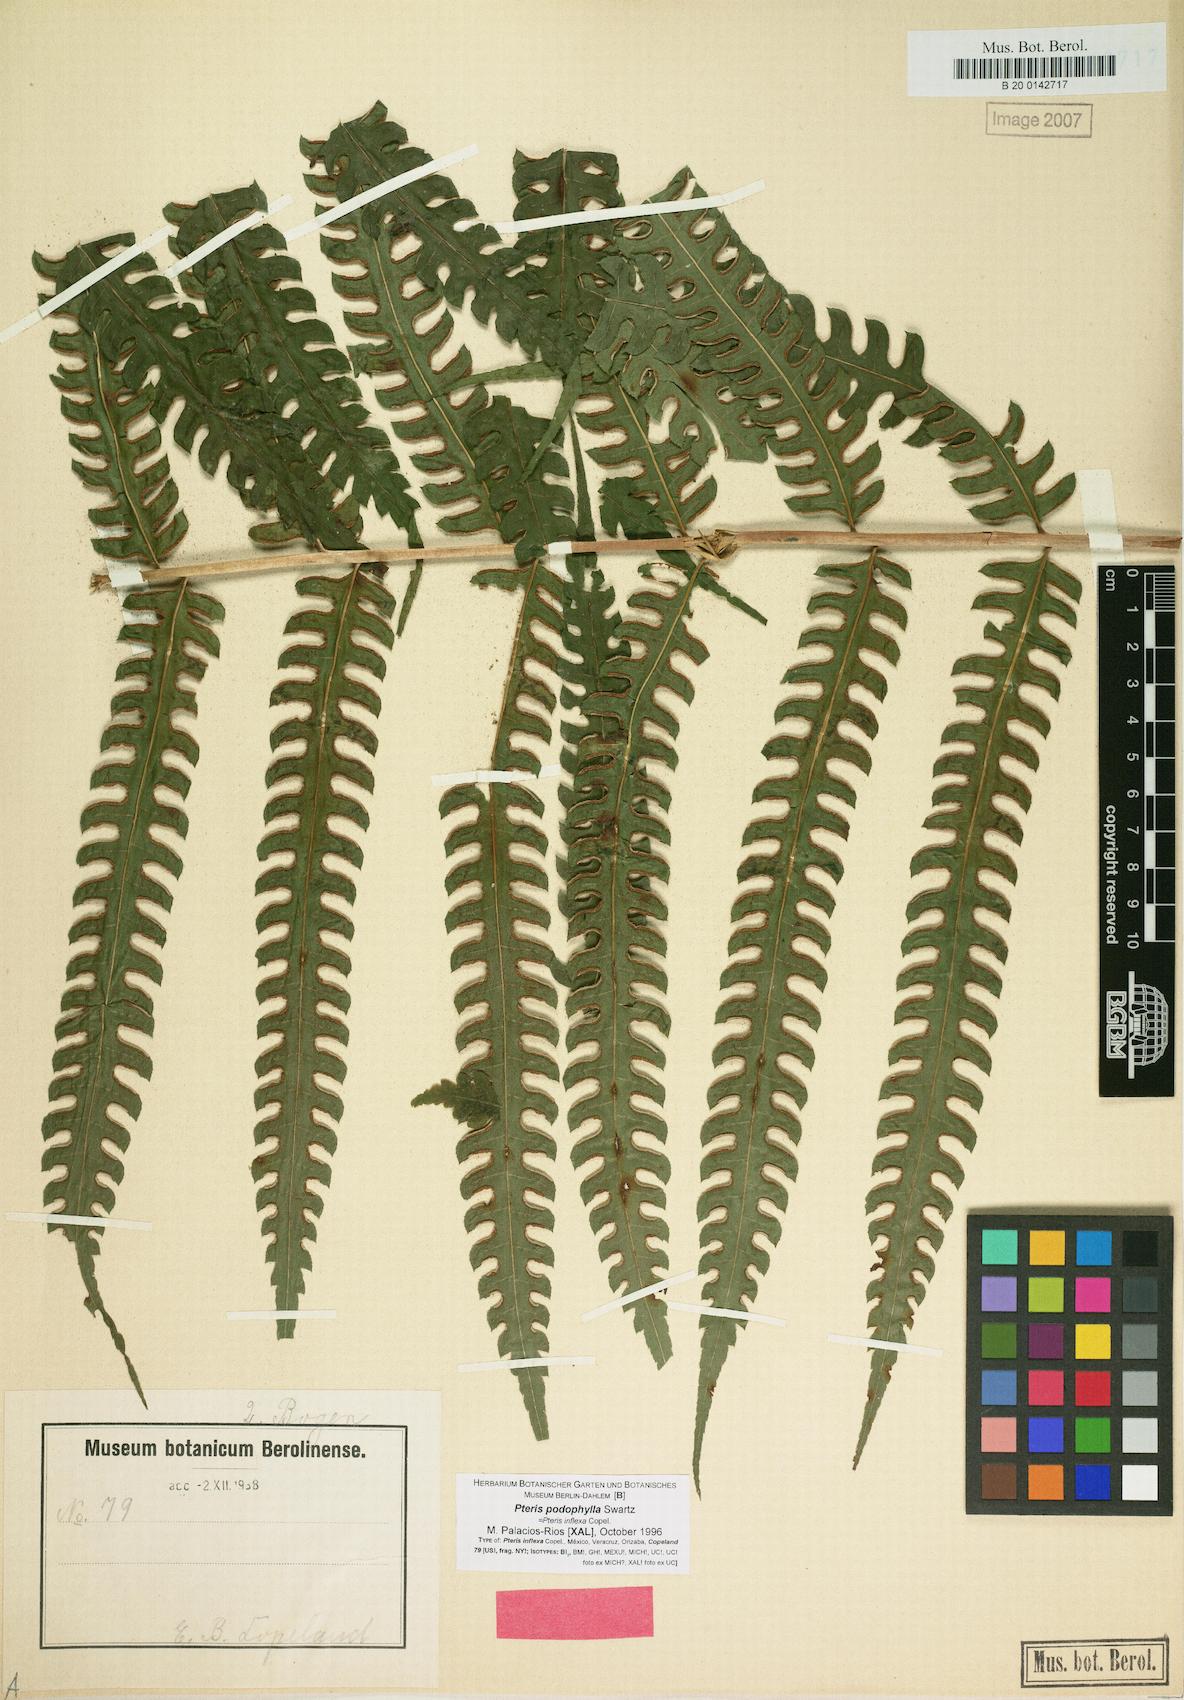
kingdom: Plantae
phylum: Tracheophyta
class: Polypodiopsida
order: Polypodiales
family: Pteridaceae
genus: Pteris
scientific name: Pteris podophylla
